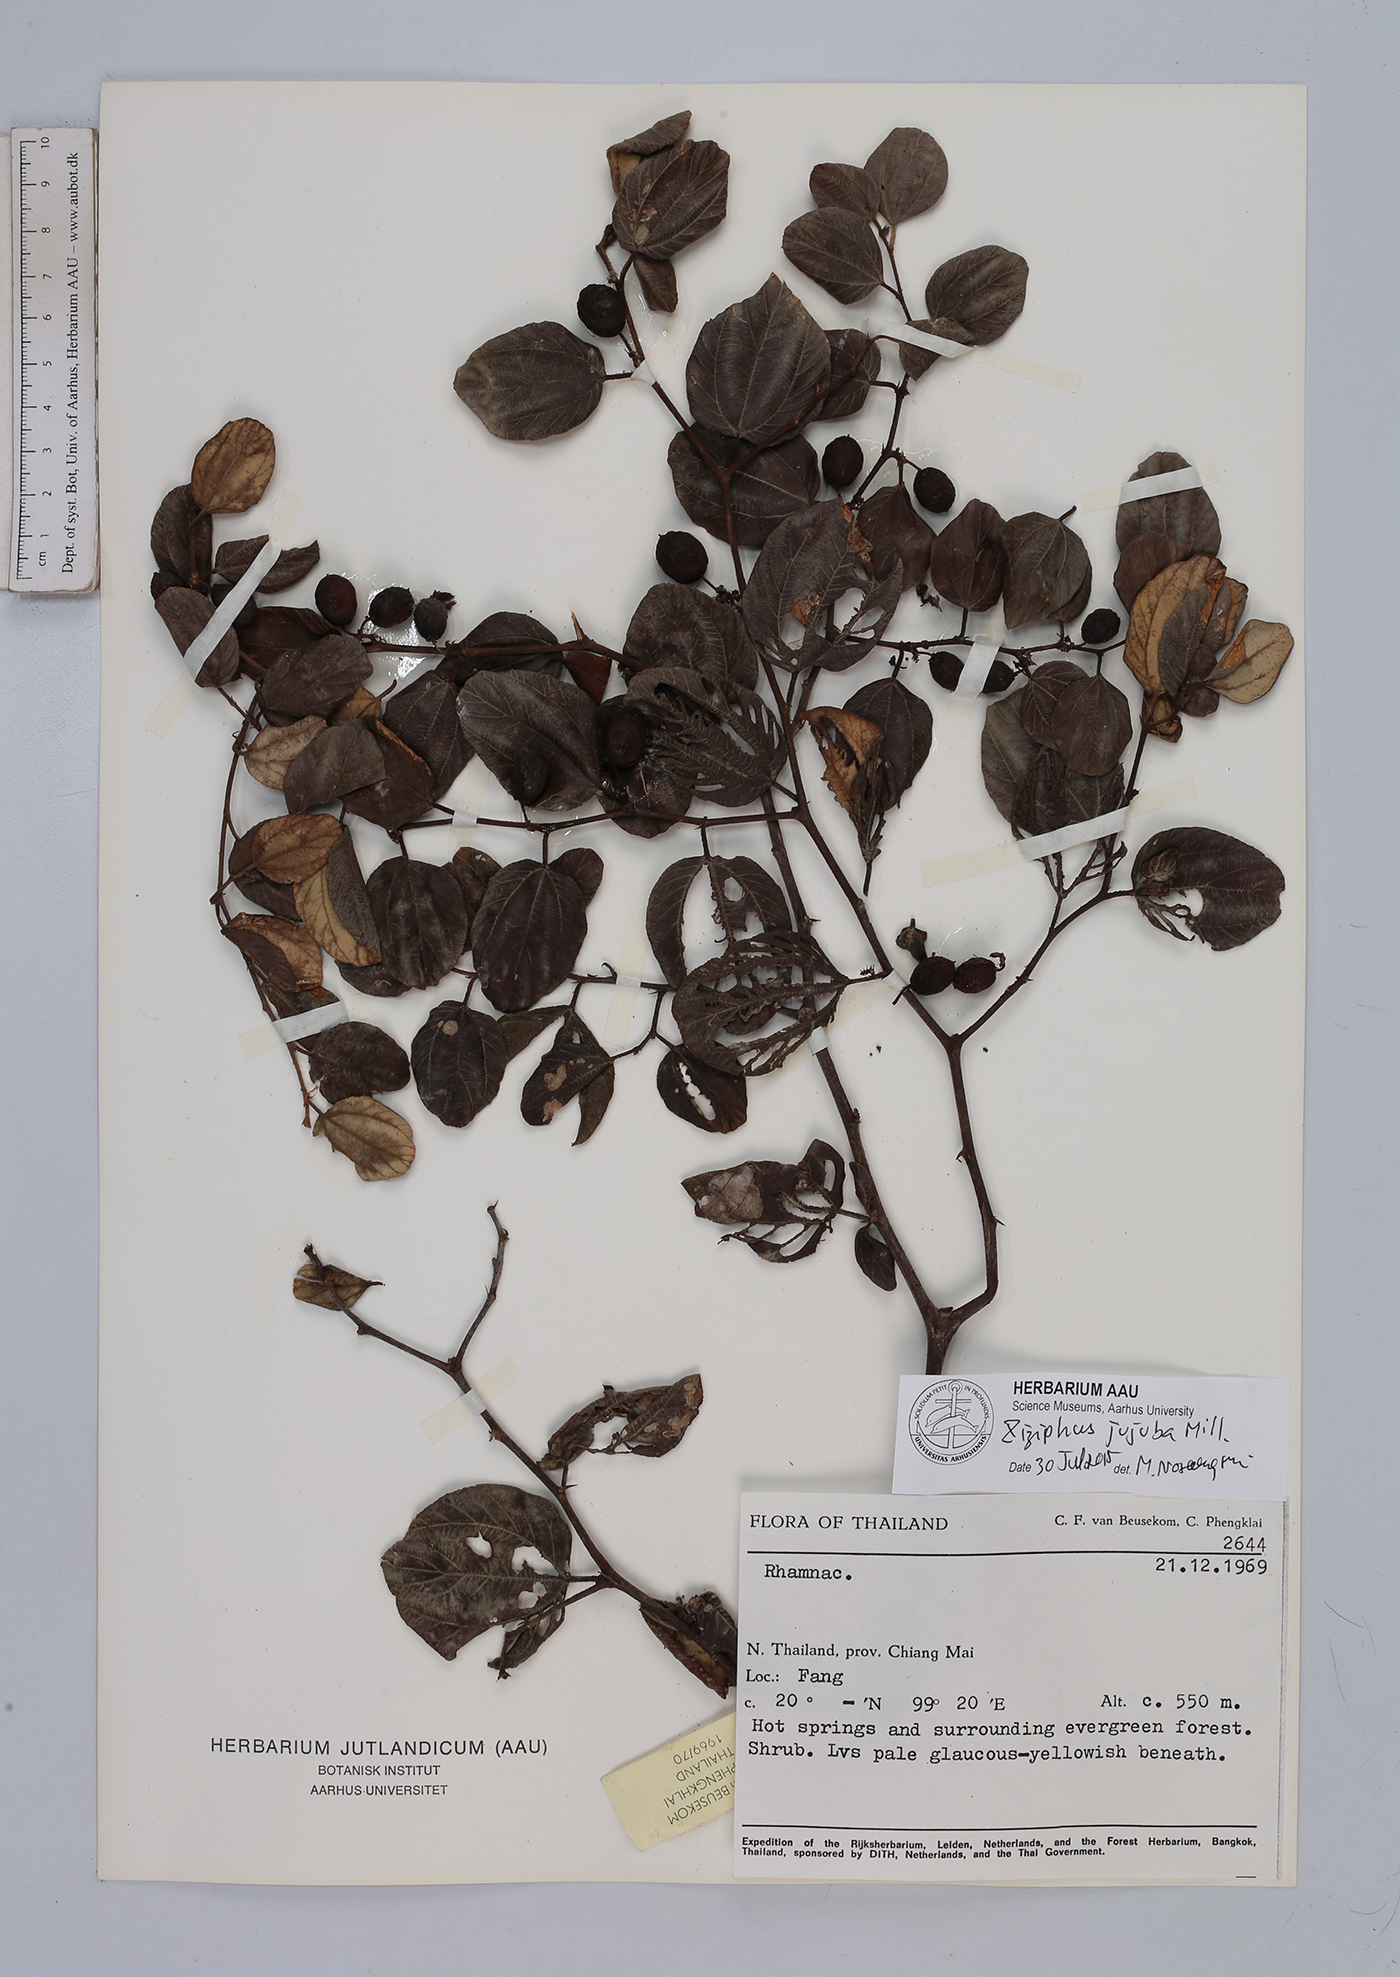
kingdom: Plantae
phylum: Tracheophyta
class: Magnoliopsida
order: Rosales
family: Rhamnaceae
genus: Ziziphus
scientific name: Ziziphus jujuba
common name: Jujube red date
